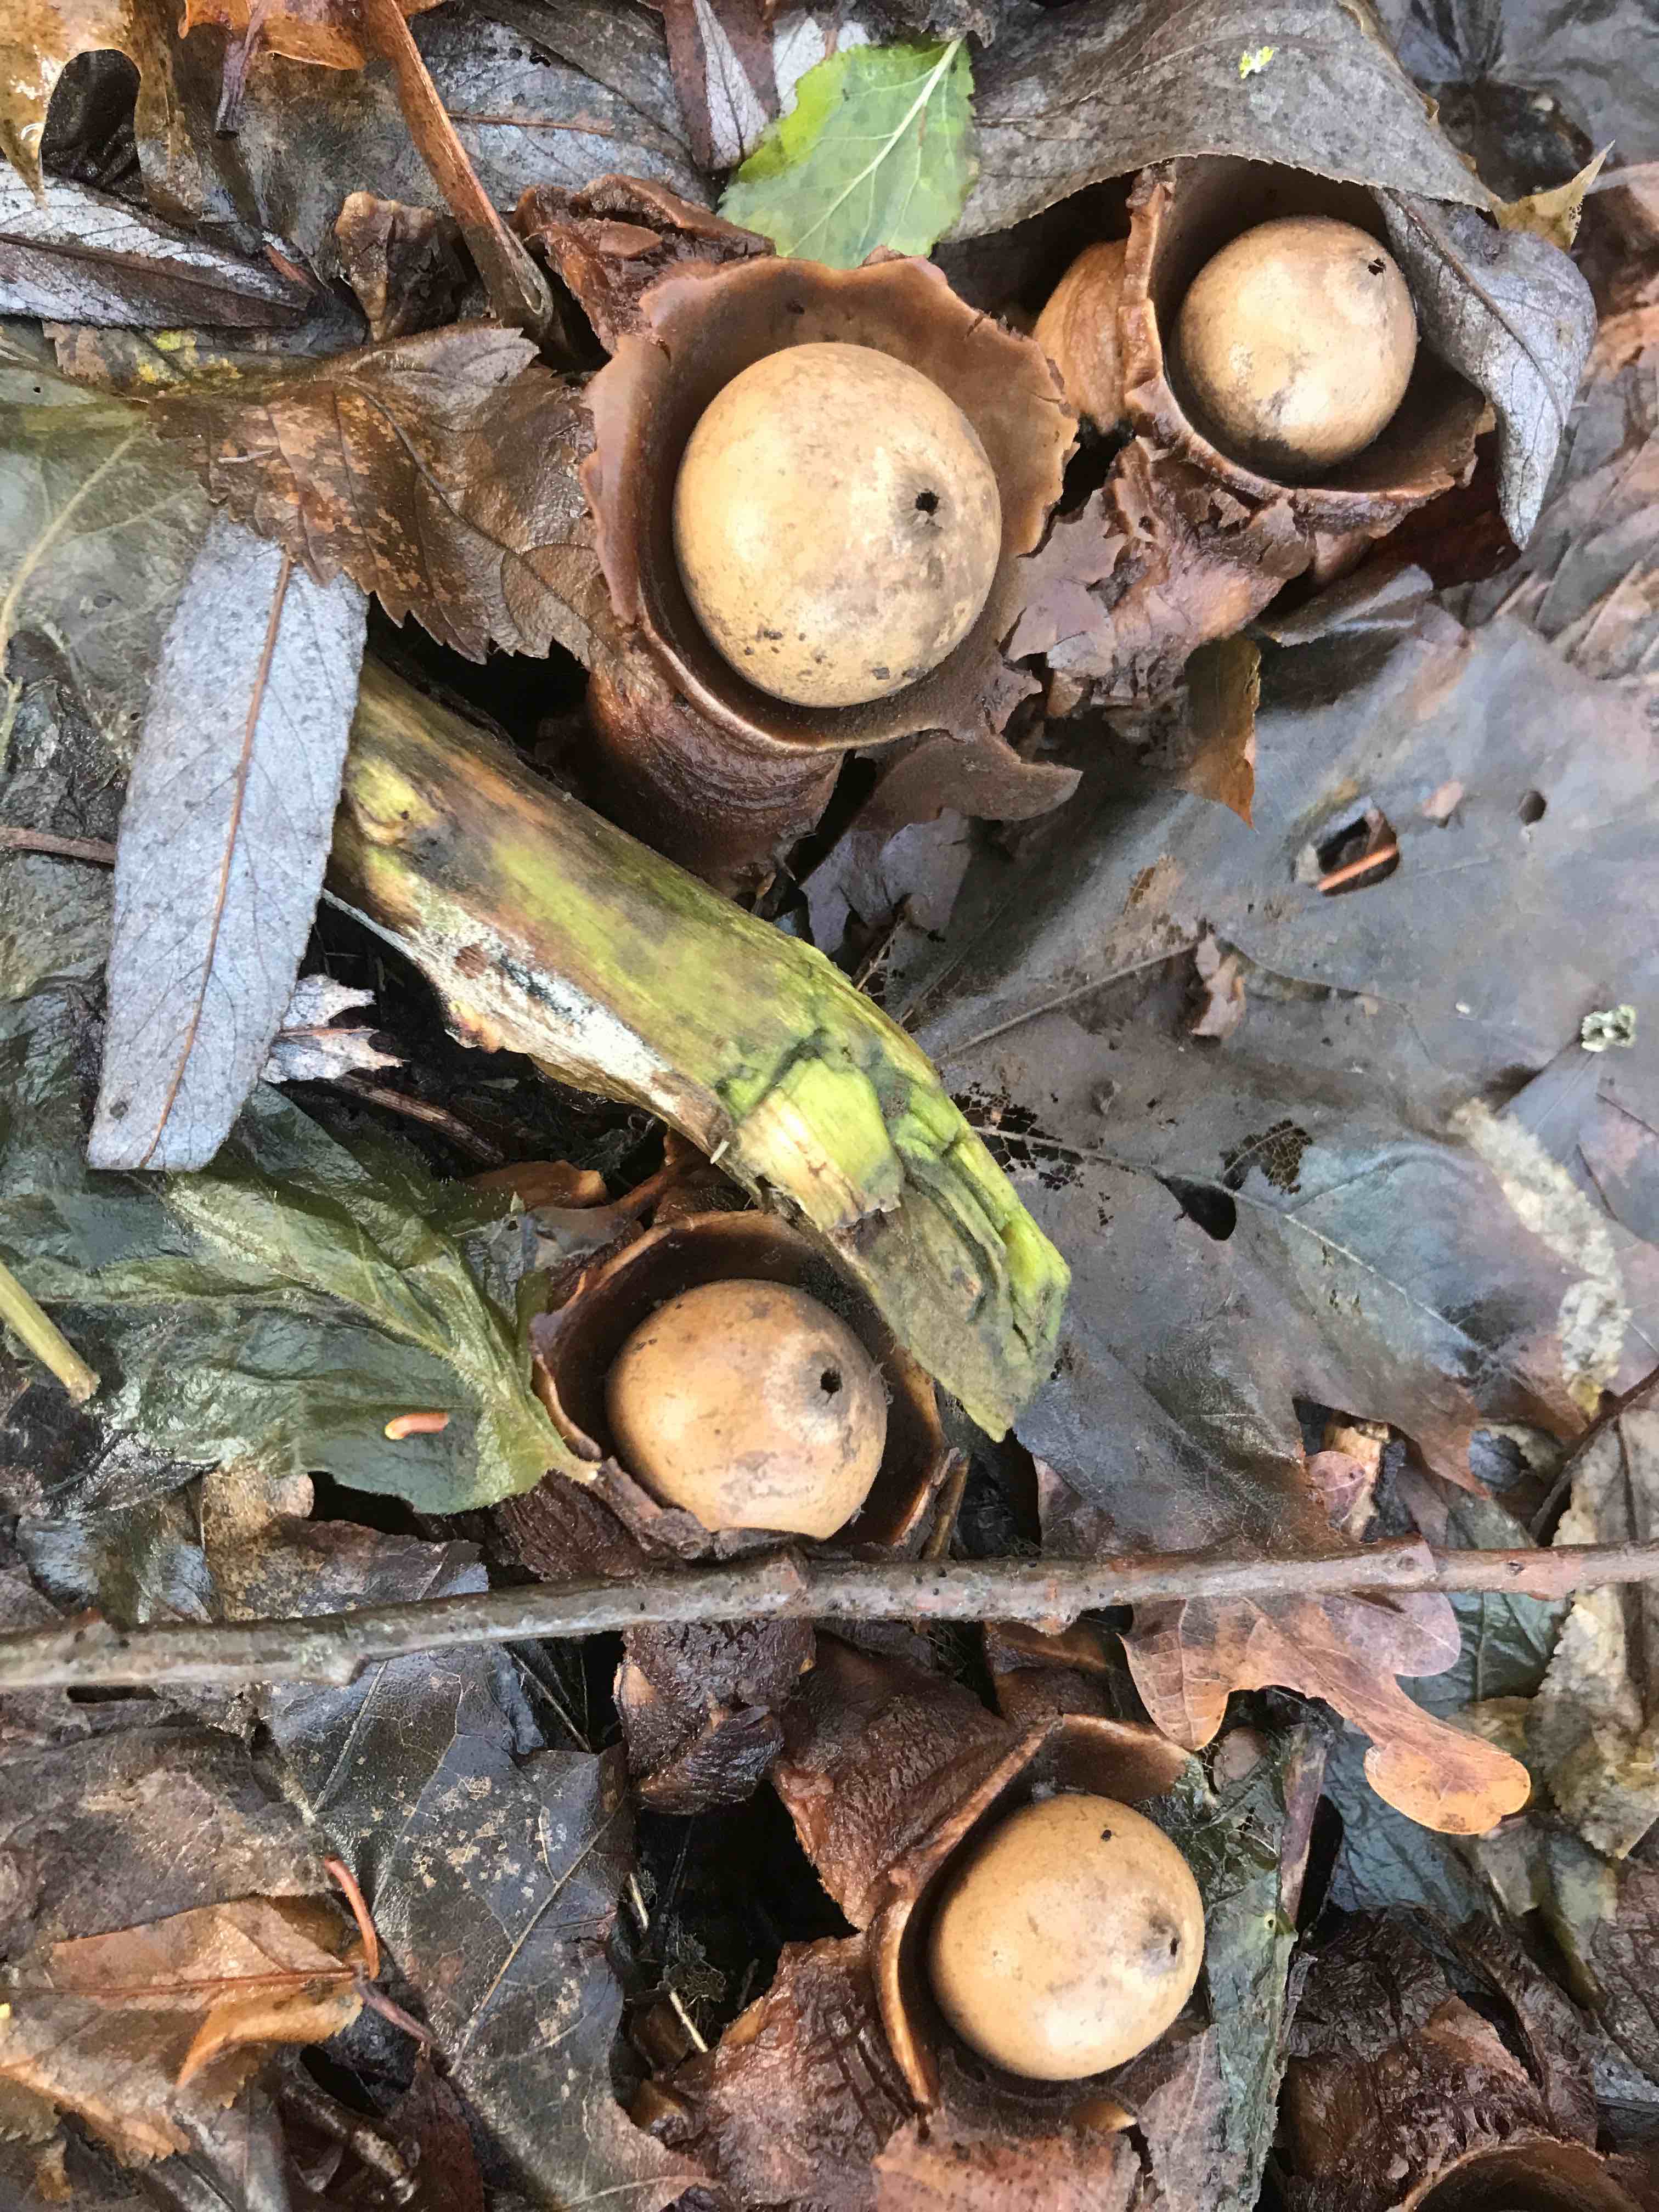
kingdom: Fungi
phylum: Basidiomycota
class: Agaricomycetes
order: Geastrales
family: Geastraceae
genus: Geastrum
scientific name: Geastrum michelianum
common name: kødet stjernebold
